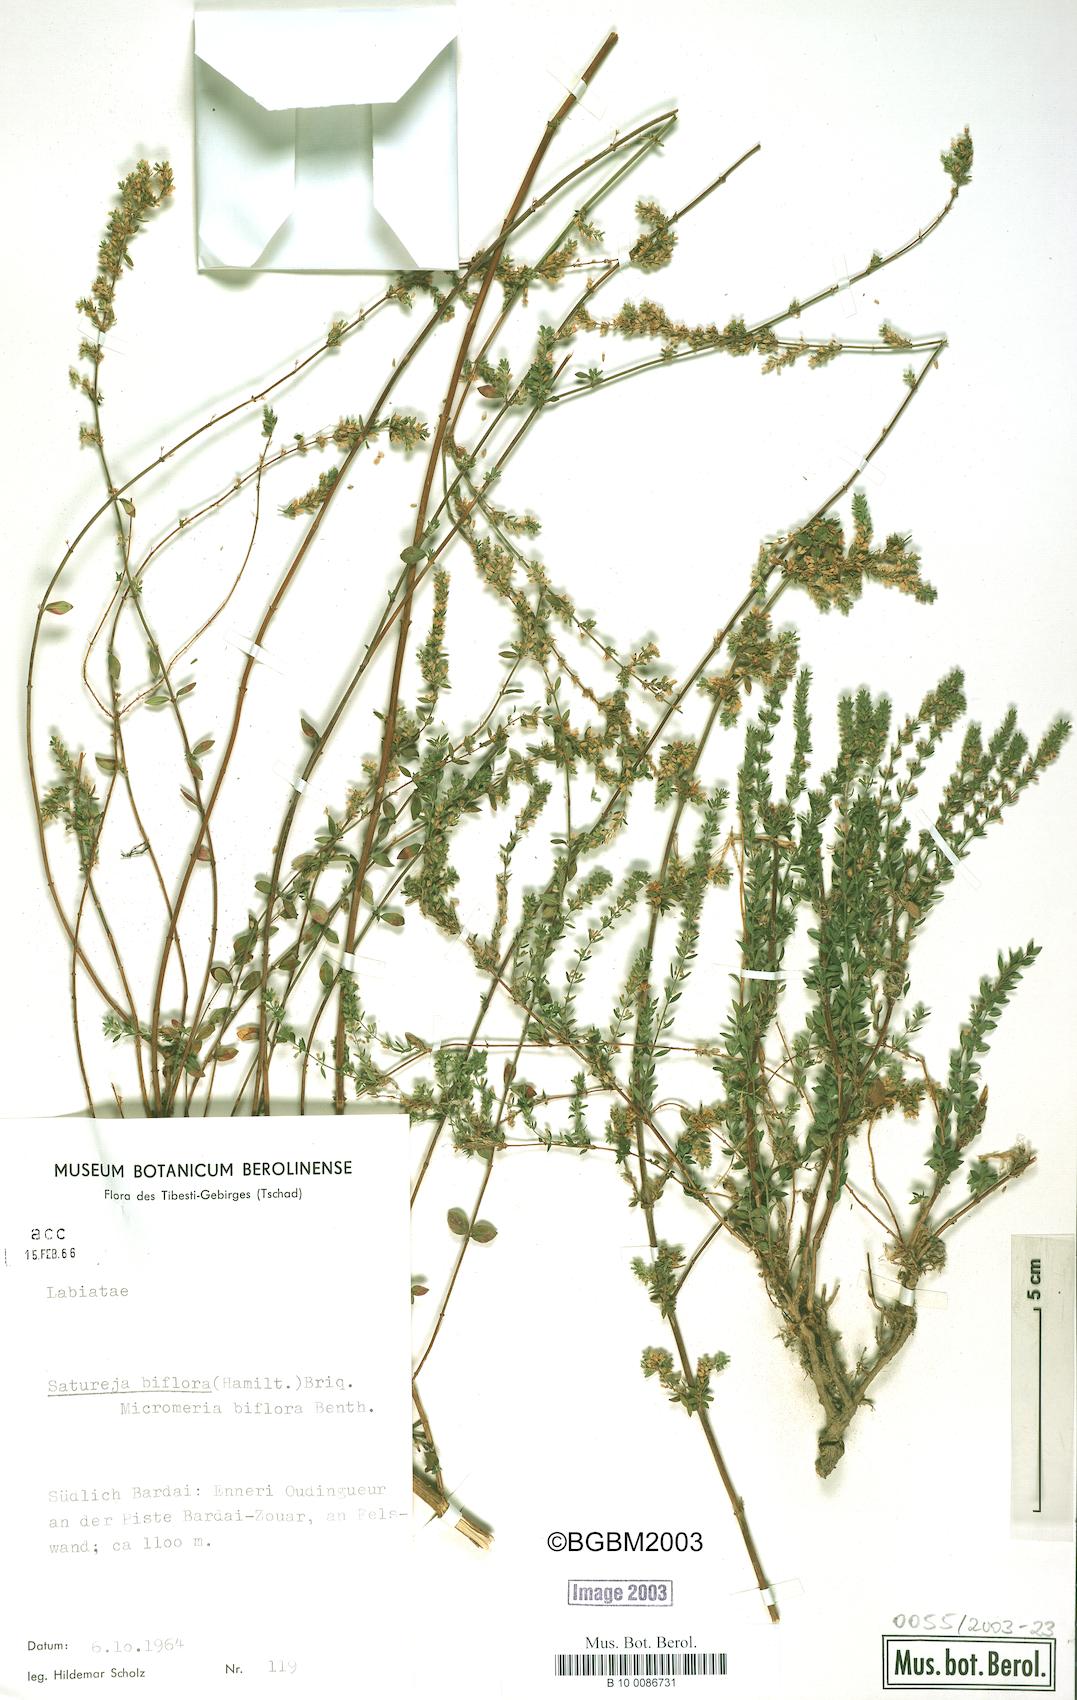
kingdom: Plantae
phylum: Tracheophyta
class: Magnoliopsida
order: Lamiales
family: Lamiaceae
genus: Micromeria
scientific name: Micromeria biflora
